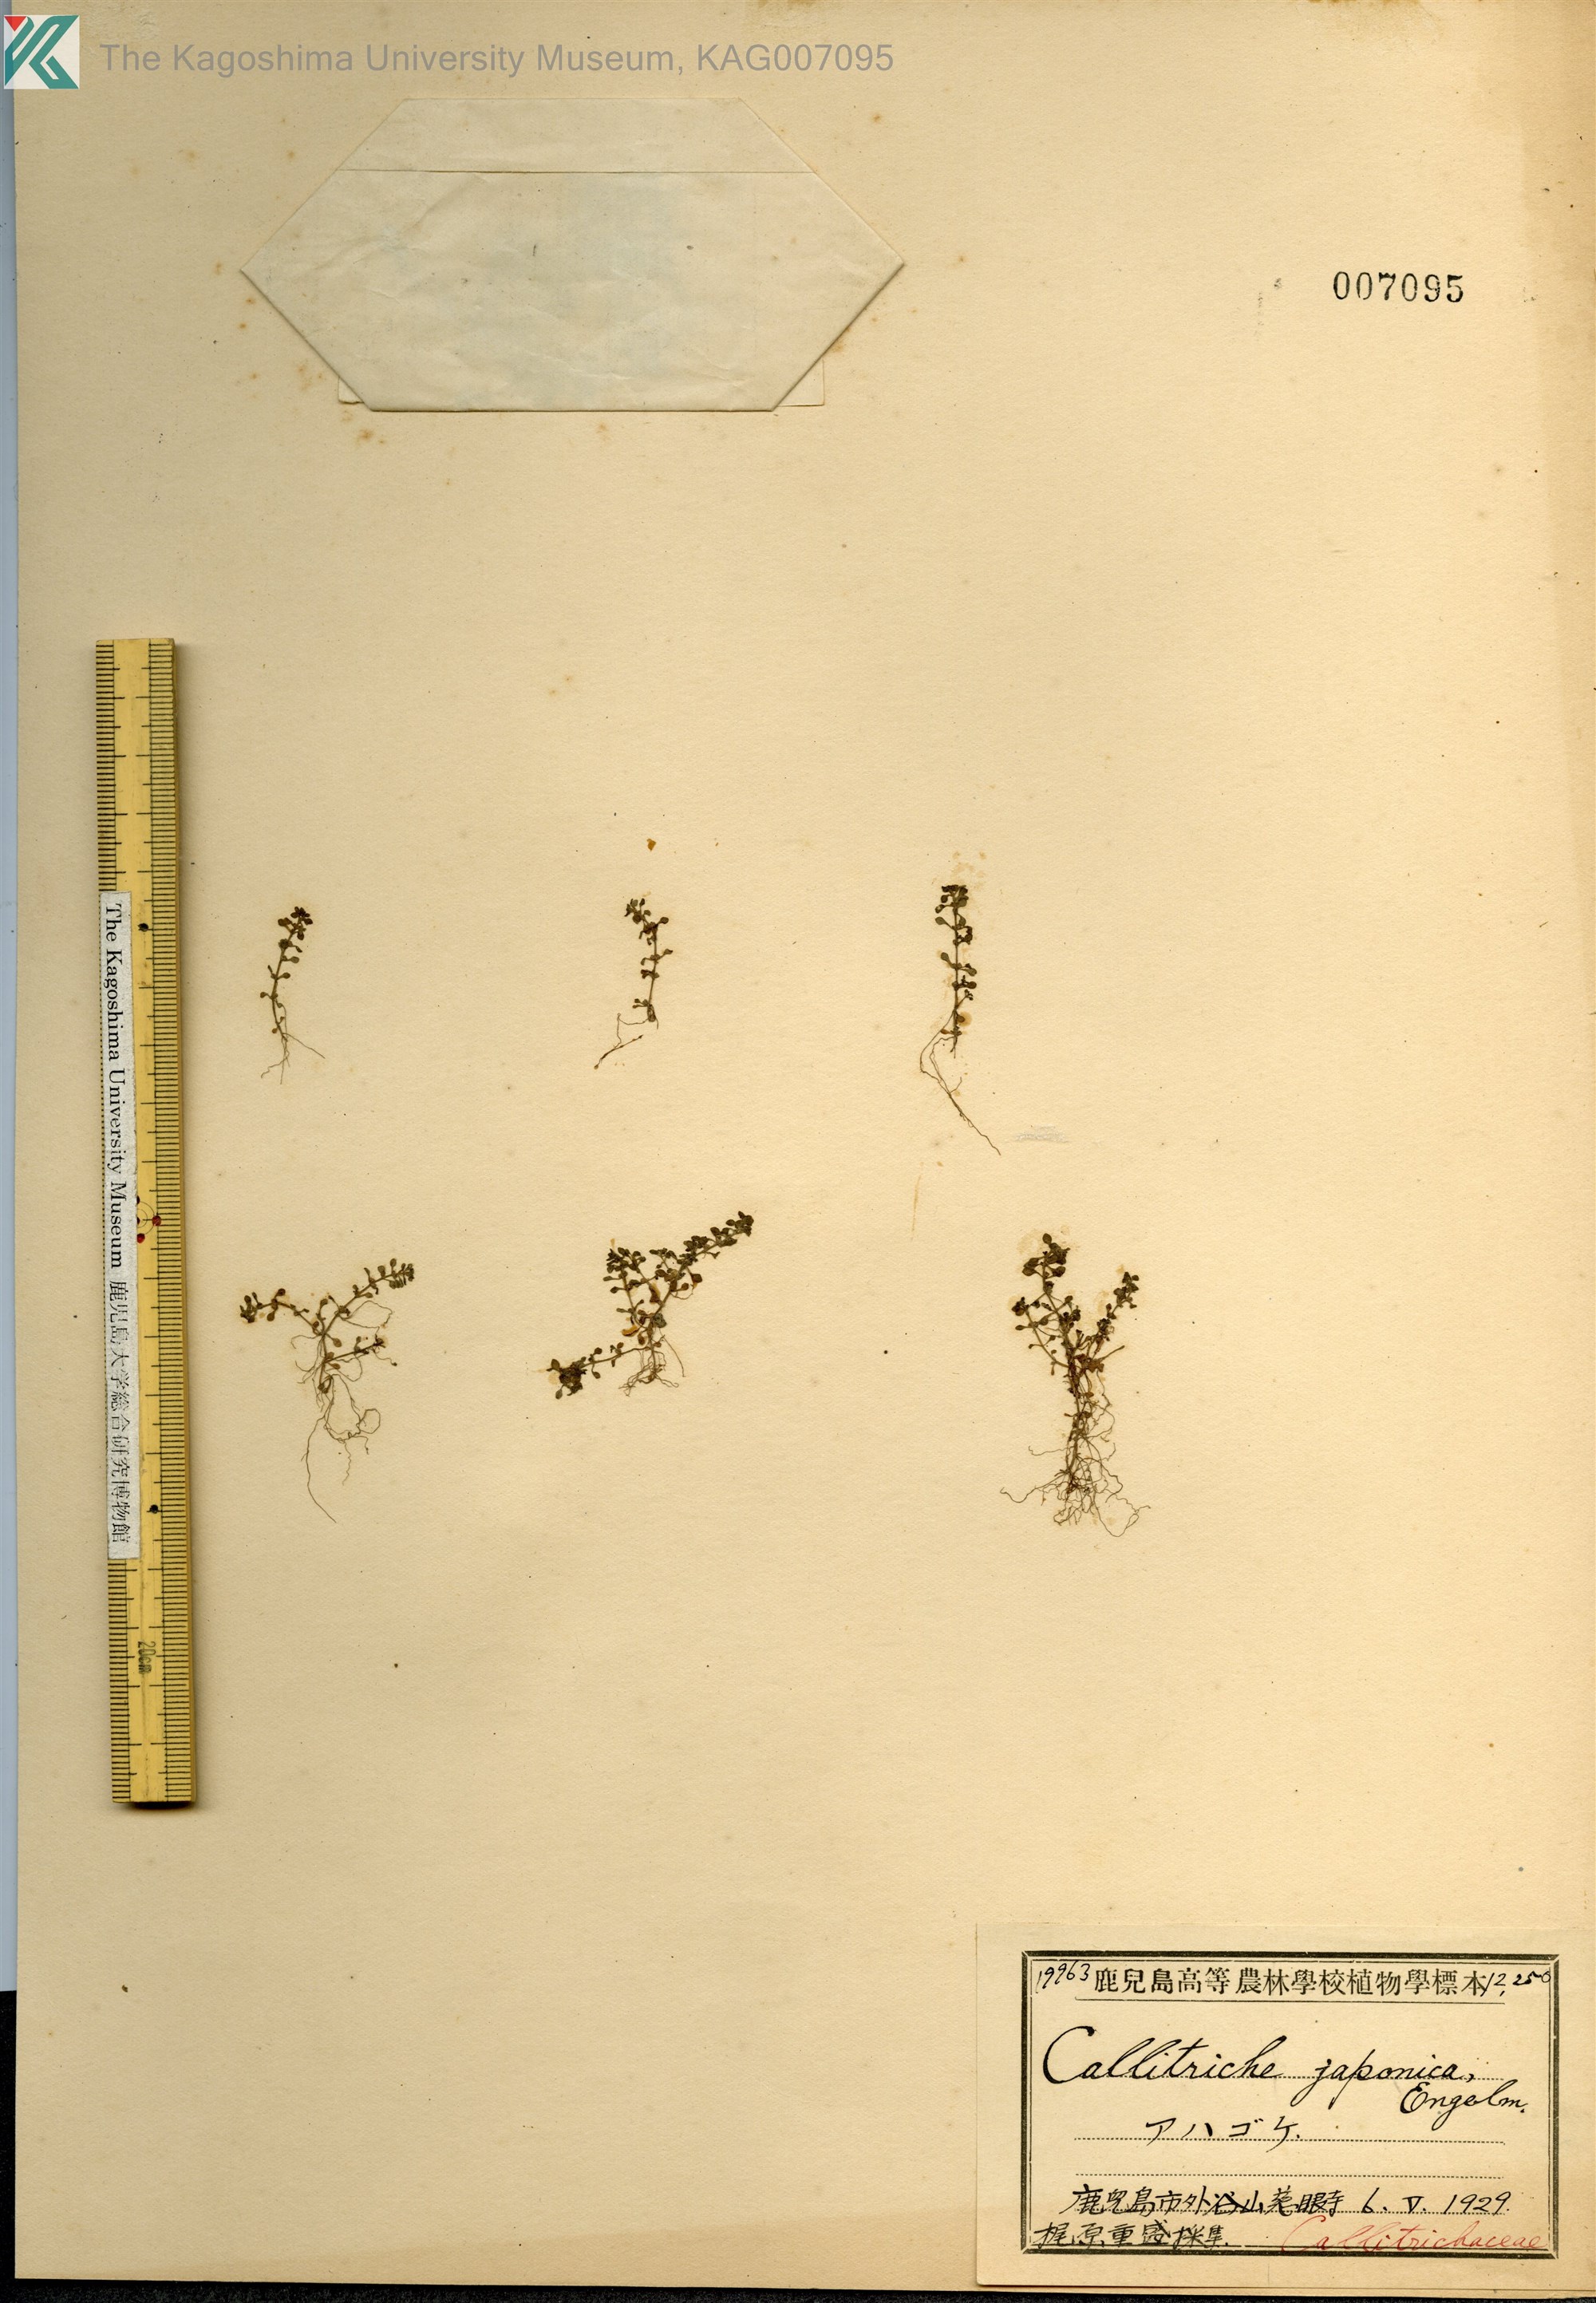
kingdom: Plantae
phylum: Tracheophyta
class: Magnoliopsida
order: Lamiales
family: Plantaginaceae
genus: Callitriche
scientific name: Callitriche japonica
